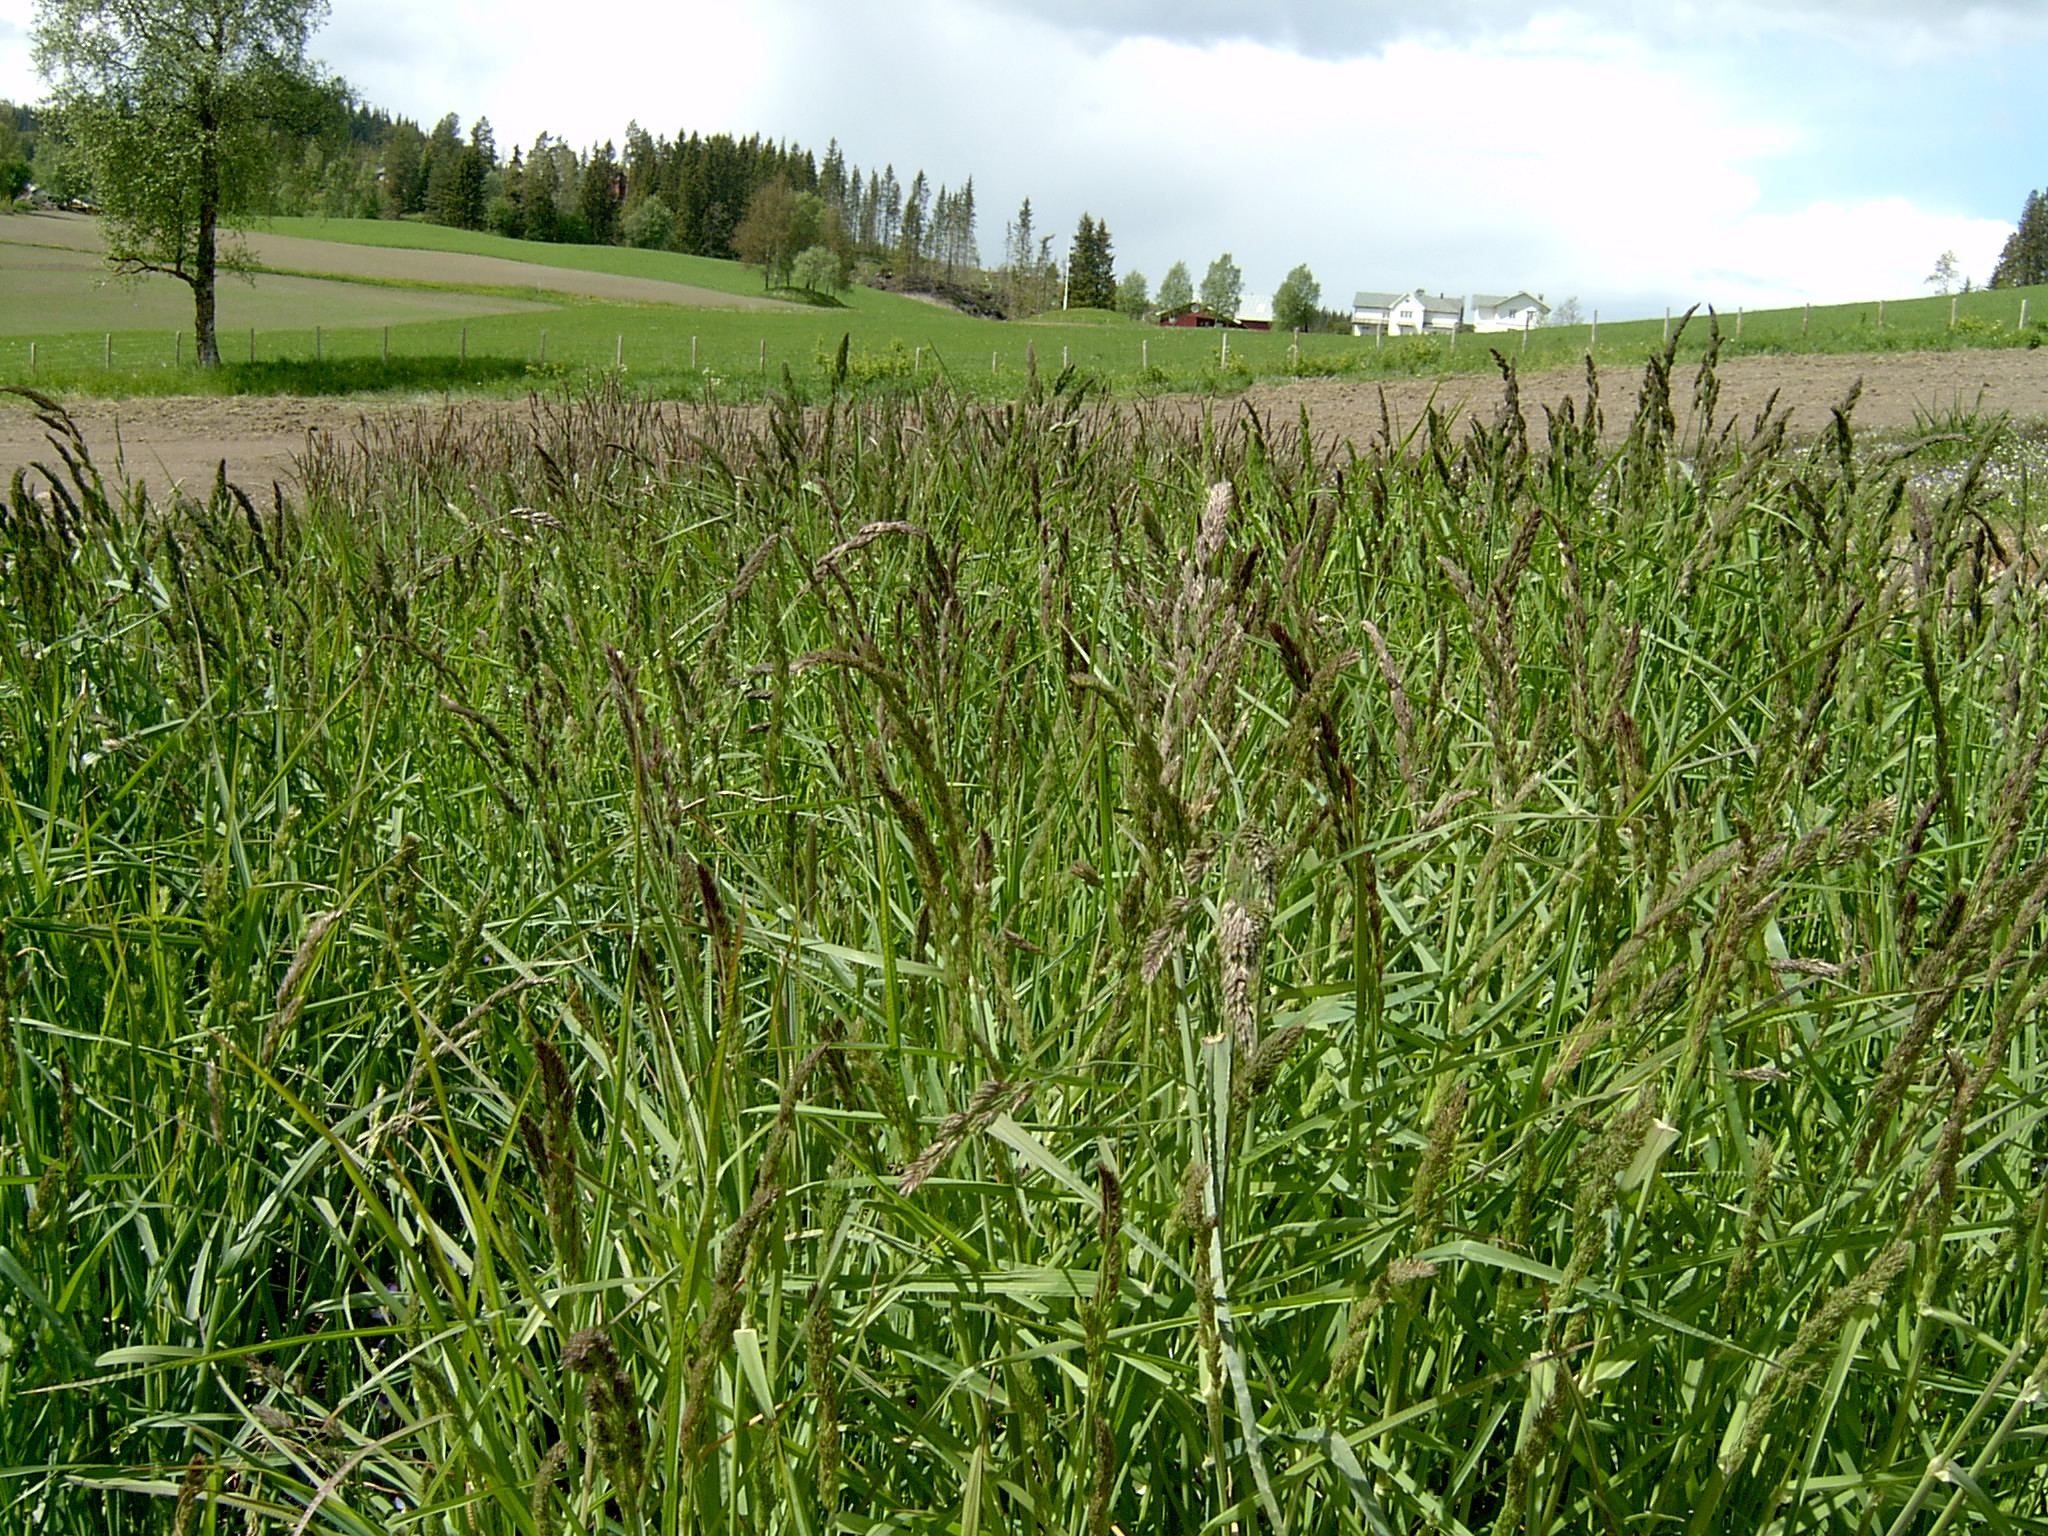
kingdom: Plantae
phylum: Tracheophyta
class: Liliopsida
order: Poales
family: Poaceae
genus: Dactylis
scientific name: Dactylis glomerata
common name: Orchardgrass
